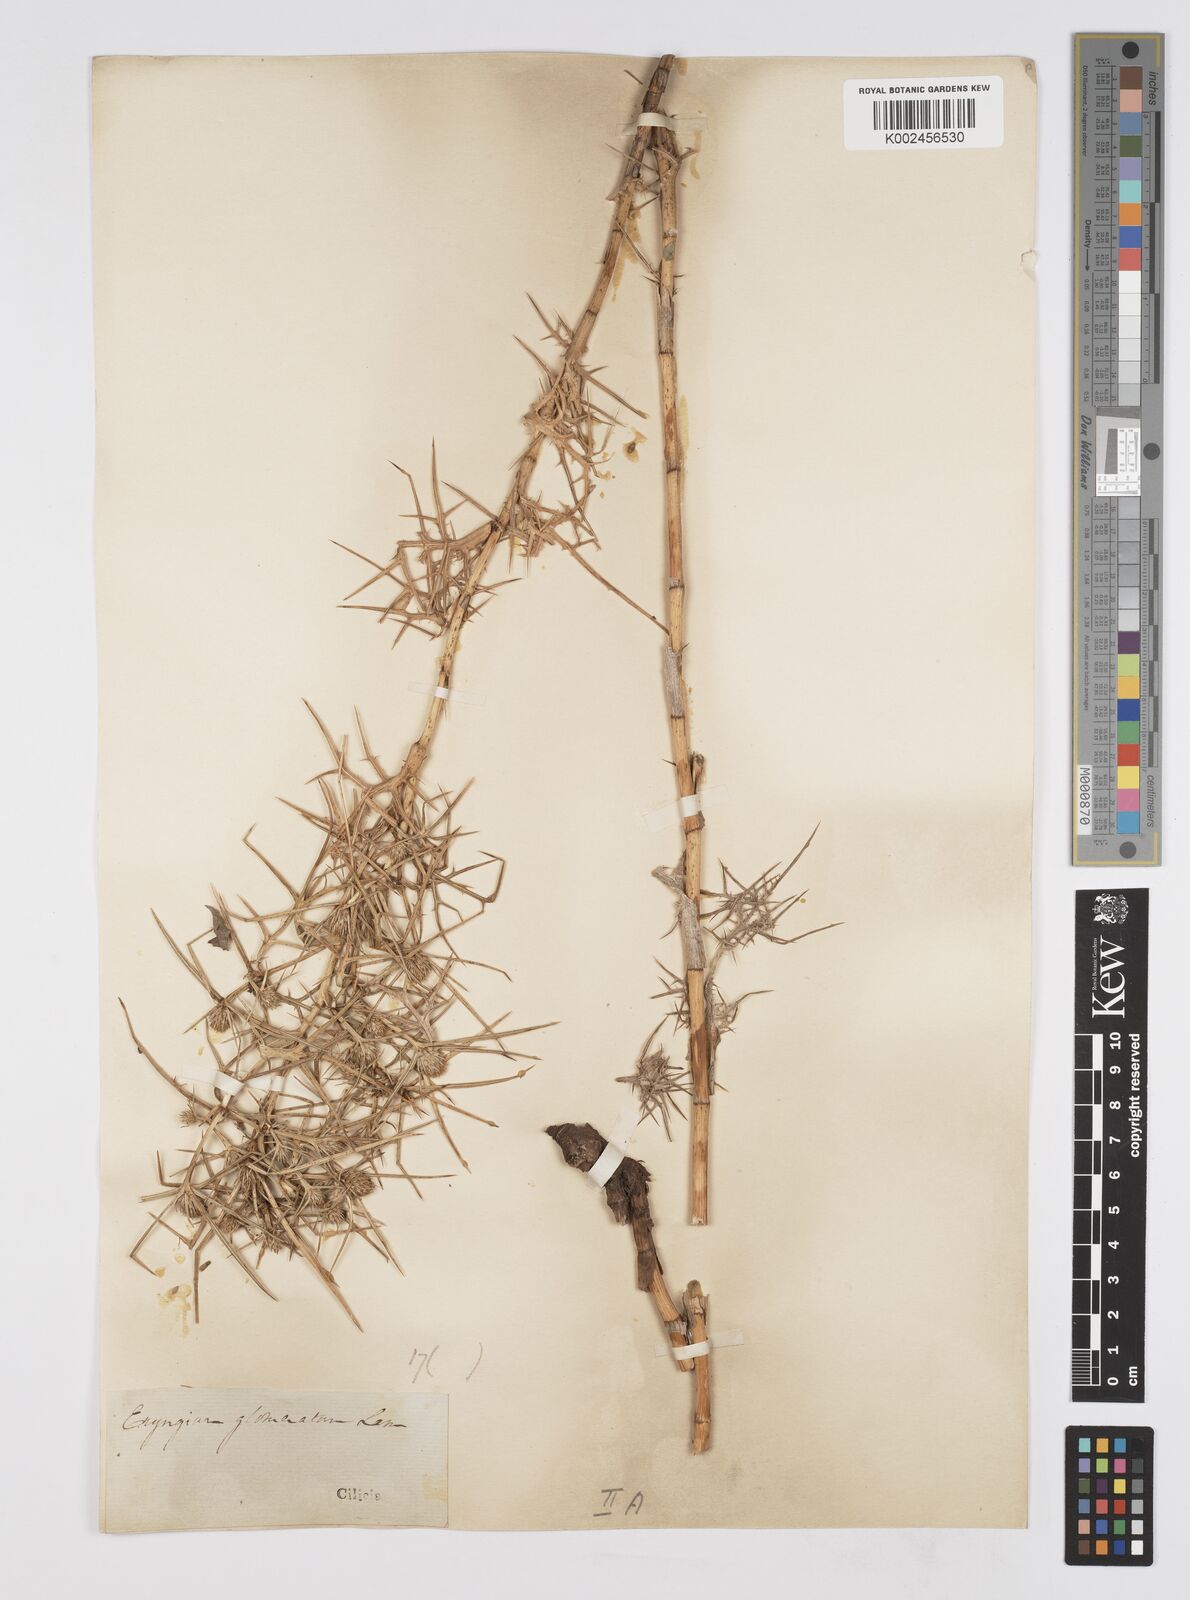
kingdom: Plantae
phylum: Tracheophyta
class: Magnoliopsida
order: Apiales
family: Apiaceae
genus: Eryngium
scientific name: Eryngium glomeratum
